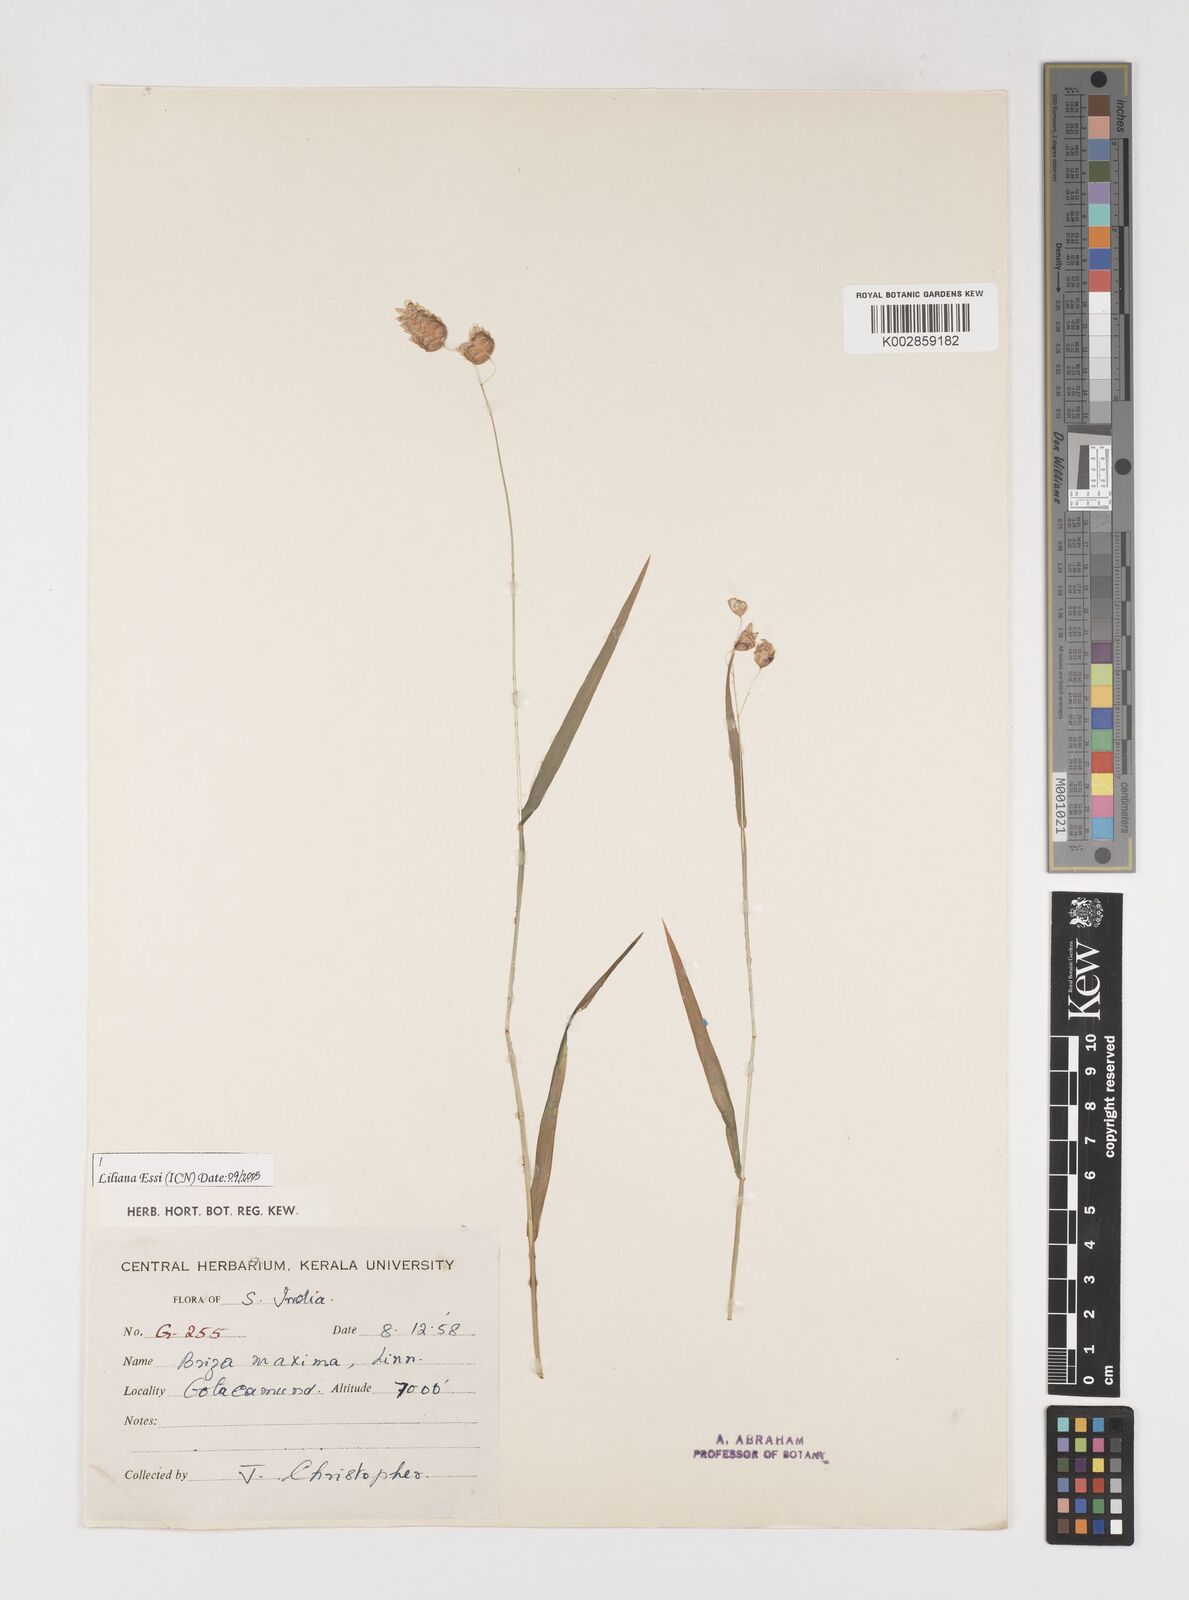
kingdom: Plantae
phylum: Tracheophyta
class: Liliopsida
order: Poales
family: Poaceae
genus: Briza
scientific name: Briza maxima
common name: Big quakinggrass
